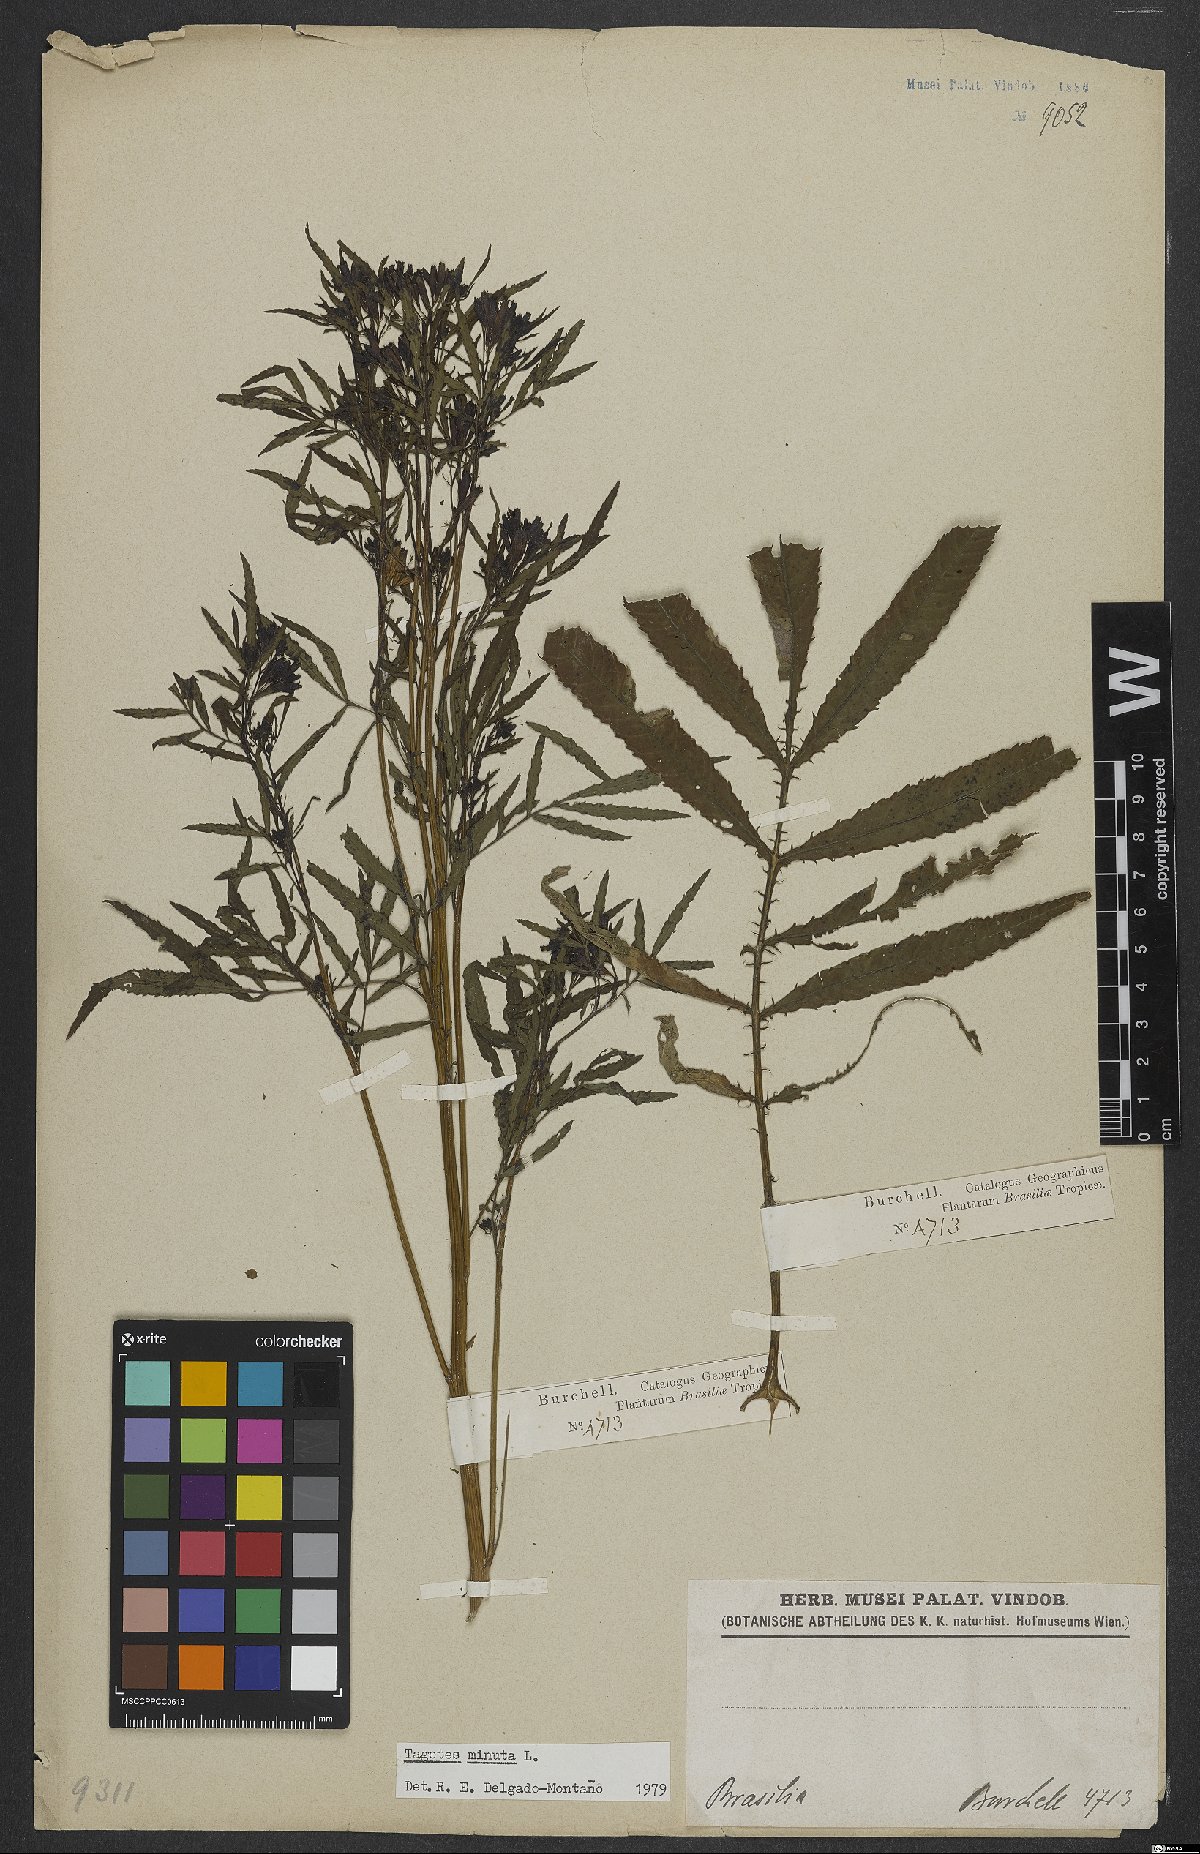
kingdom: Plantae
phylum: Tracheophyta
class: Magnoliopsida
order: Asterales
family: Asteraceae
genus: Tagetes
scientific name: Tagetes minuta
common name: Muster john henry
